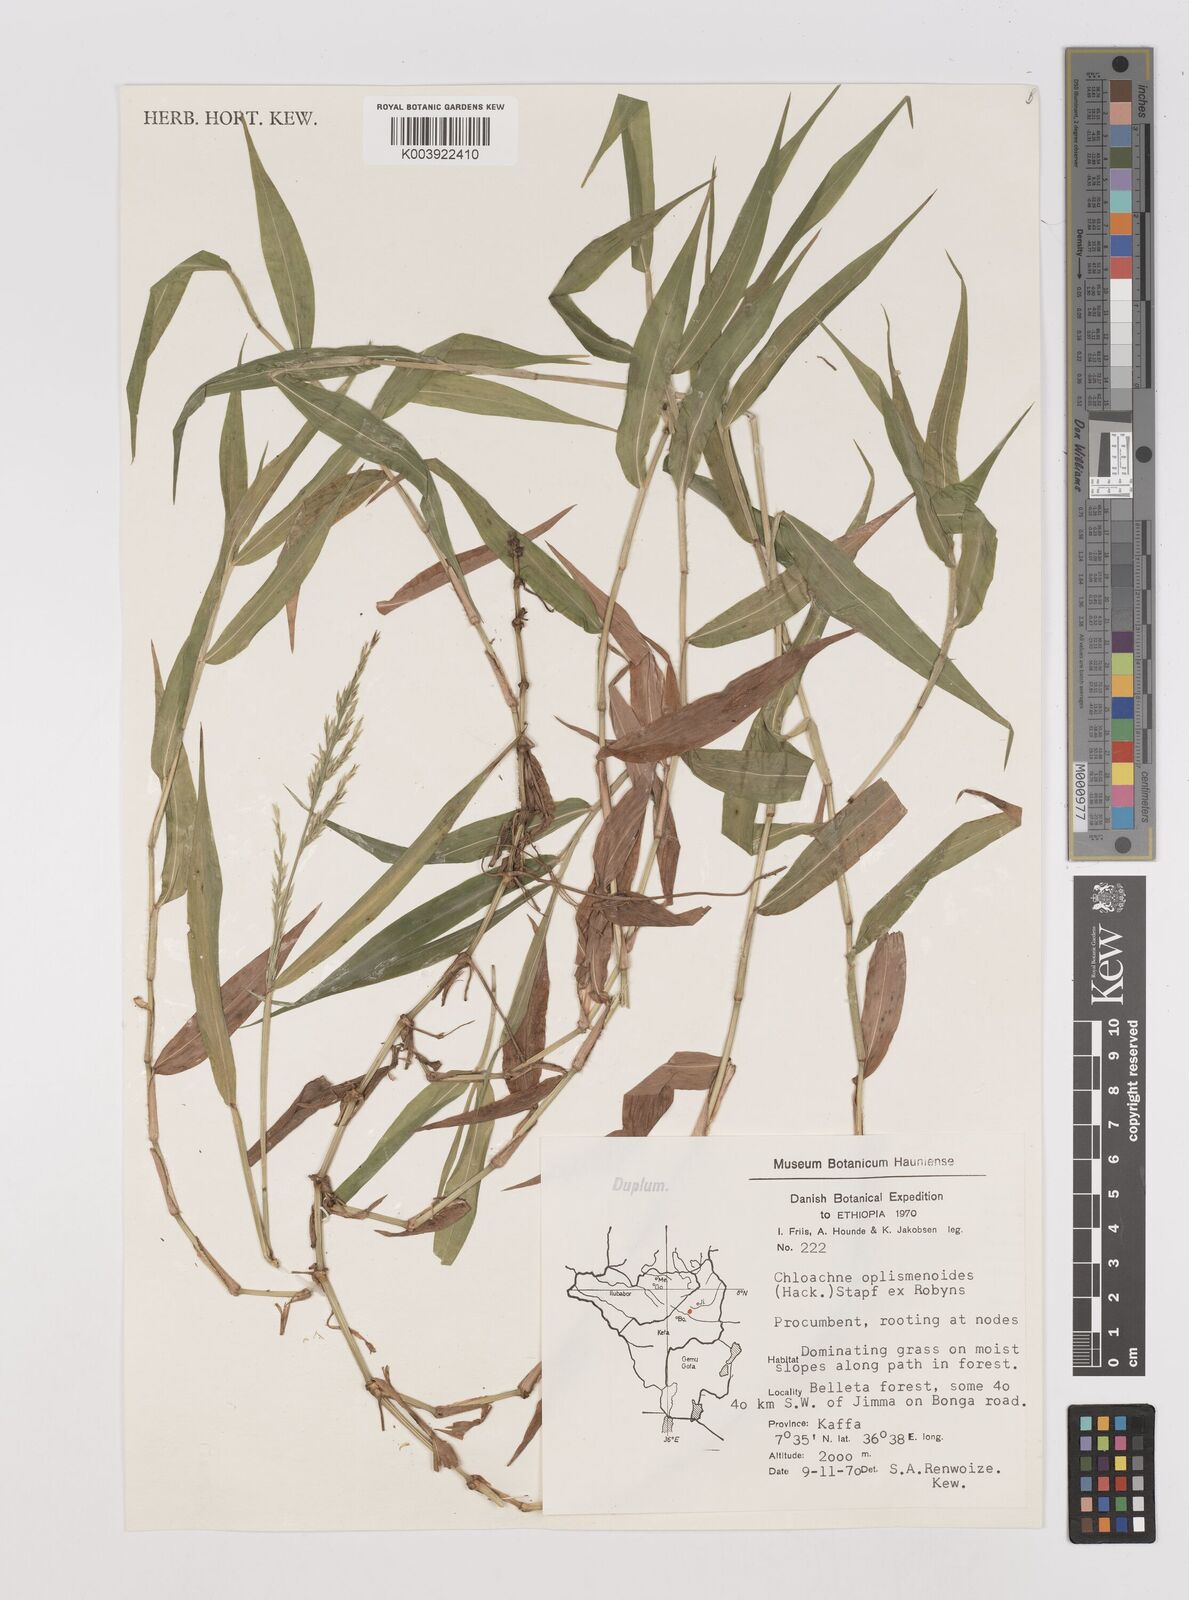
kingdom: Plantae
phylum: Tracheophyta
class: Liliopsida
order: Poales
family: Poaceae
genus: Poecilostachys
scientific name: Poecilostachys oplismenoides
